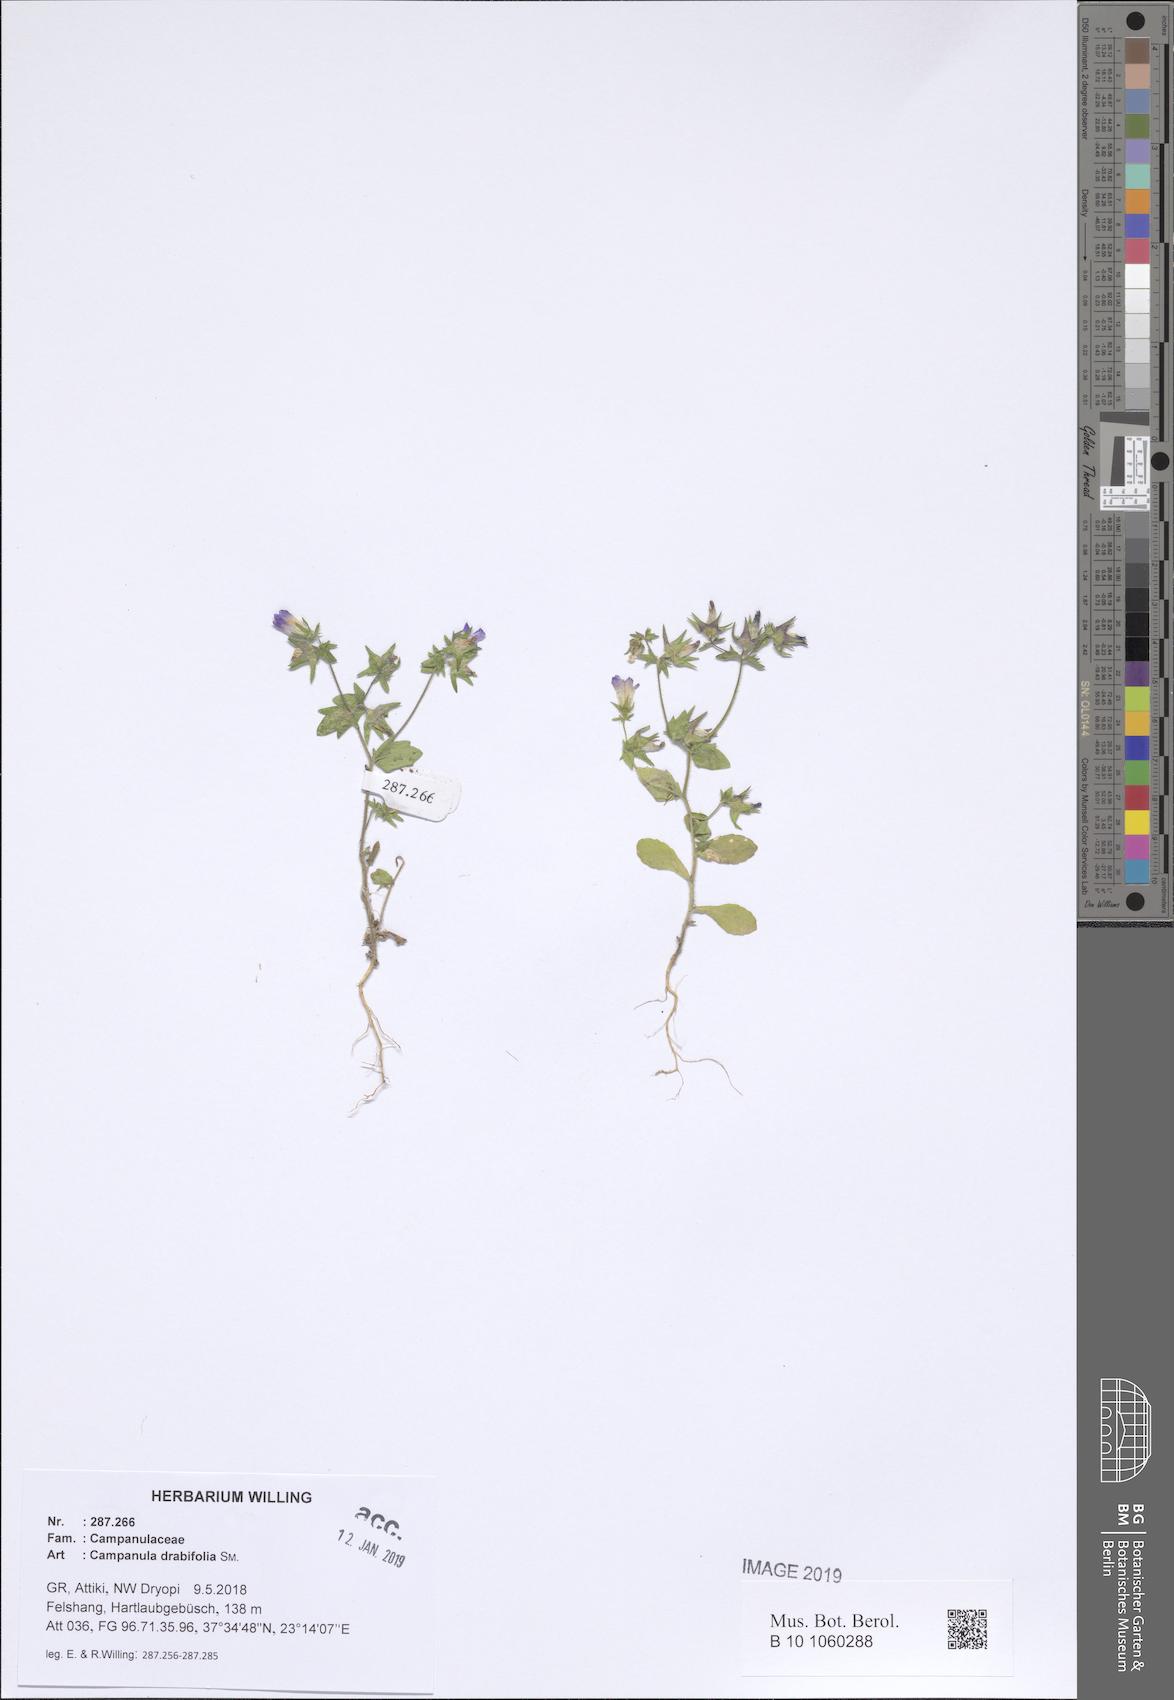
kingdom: Plantae
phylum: Tracheophyta
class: Magnoliopsida
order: Asterales
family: Campanulaceae
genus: Campanula
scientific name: Campanula drabifolia
